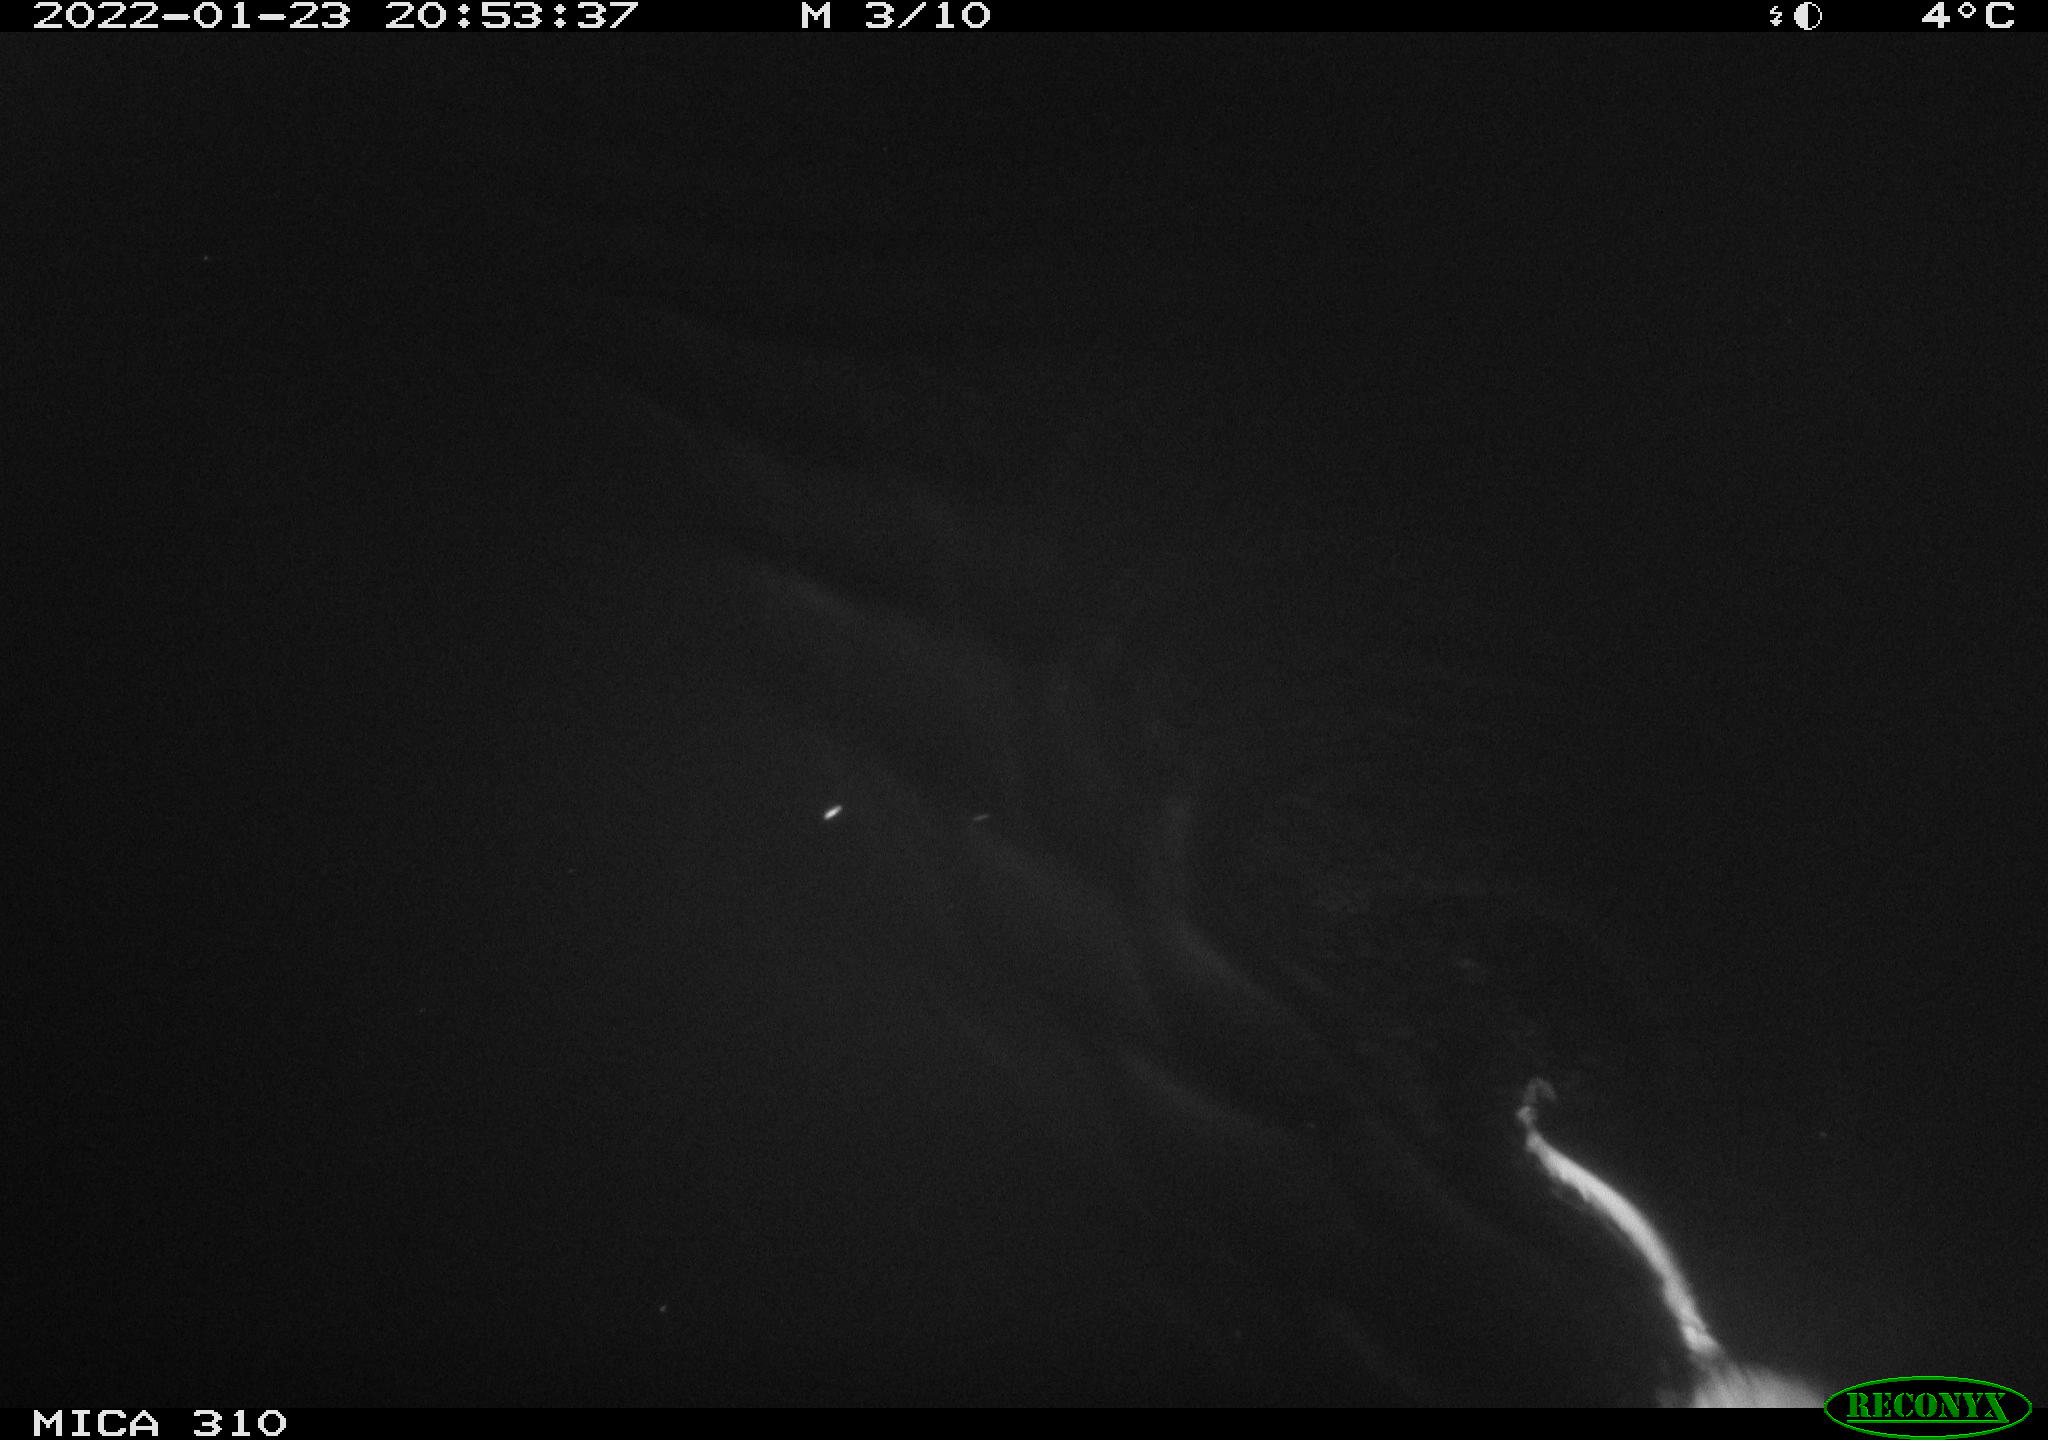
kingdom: Animalia
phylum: Chordata
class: Mammalia
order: Rodentia
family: Cricetidae
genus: Ondatra
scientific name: Ondatra zibethicus
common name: Muskrat
